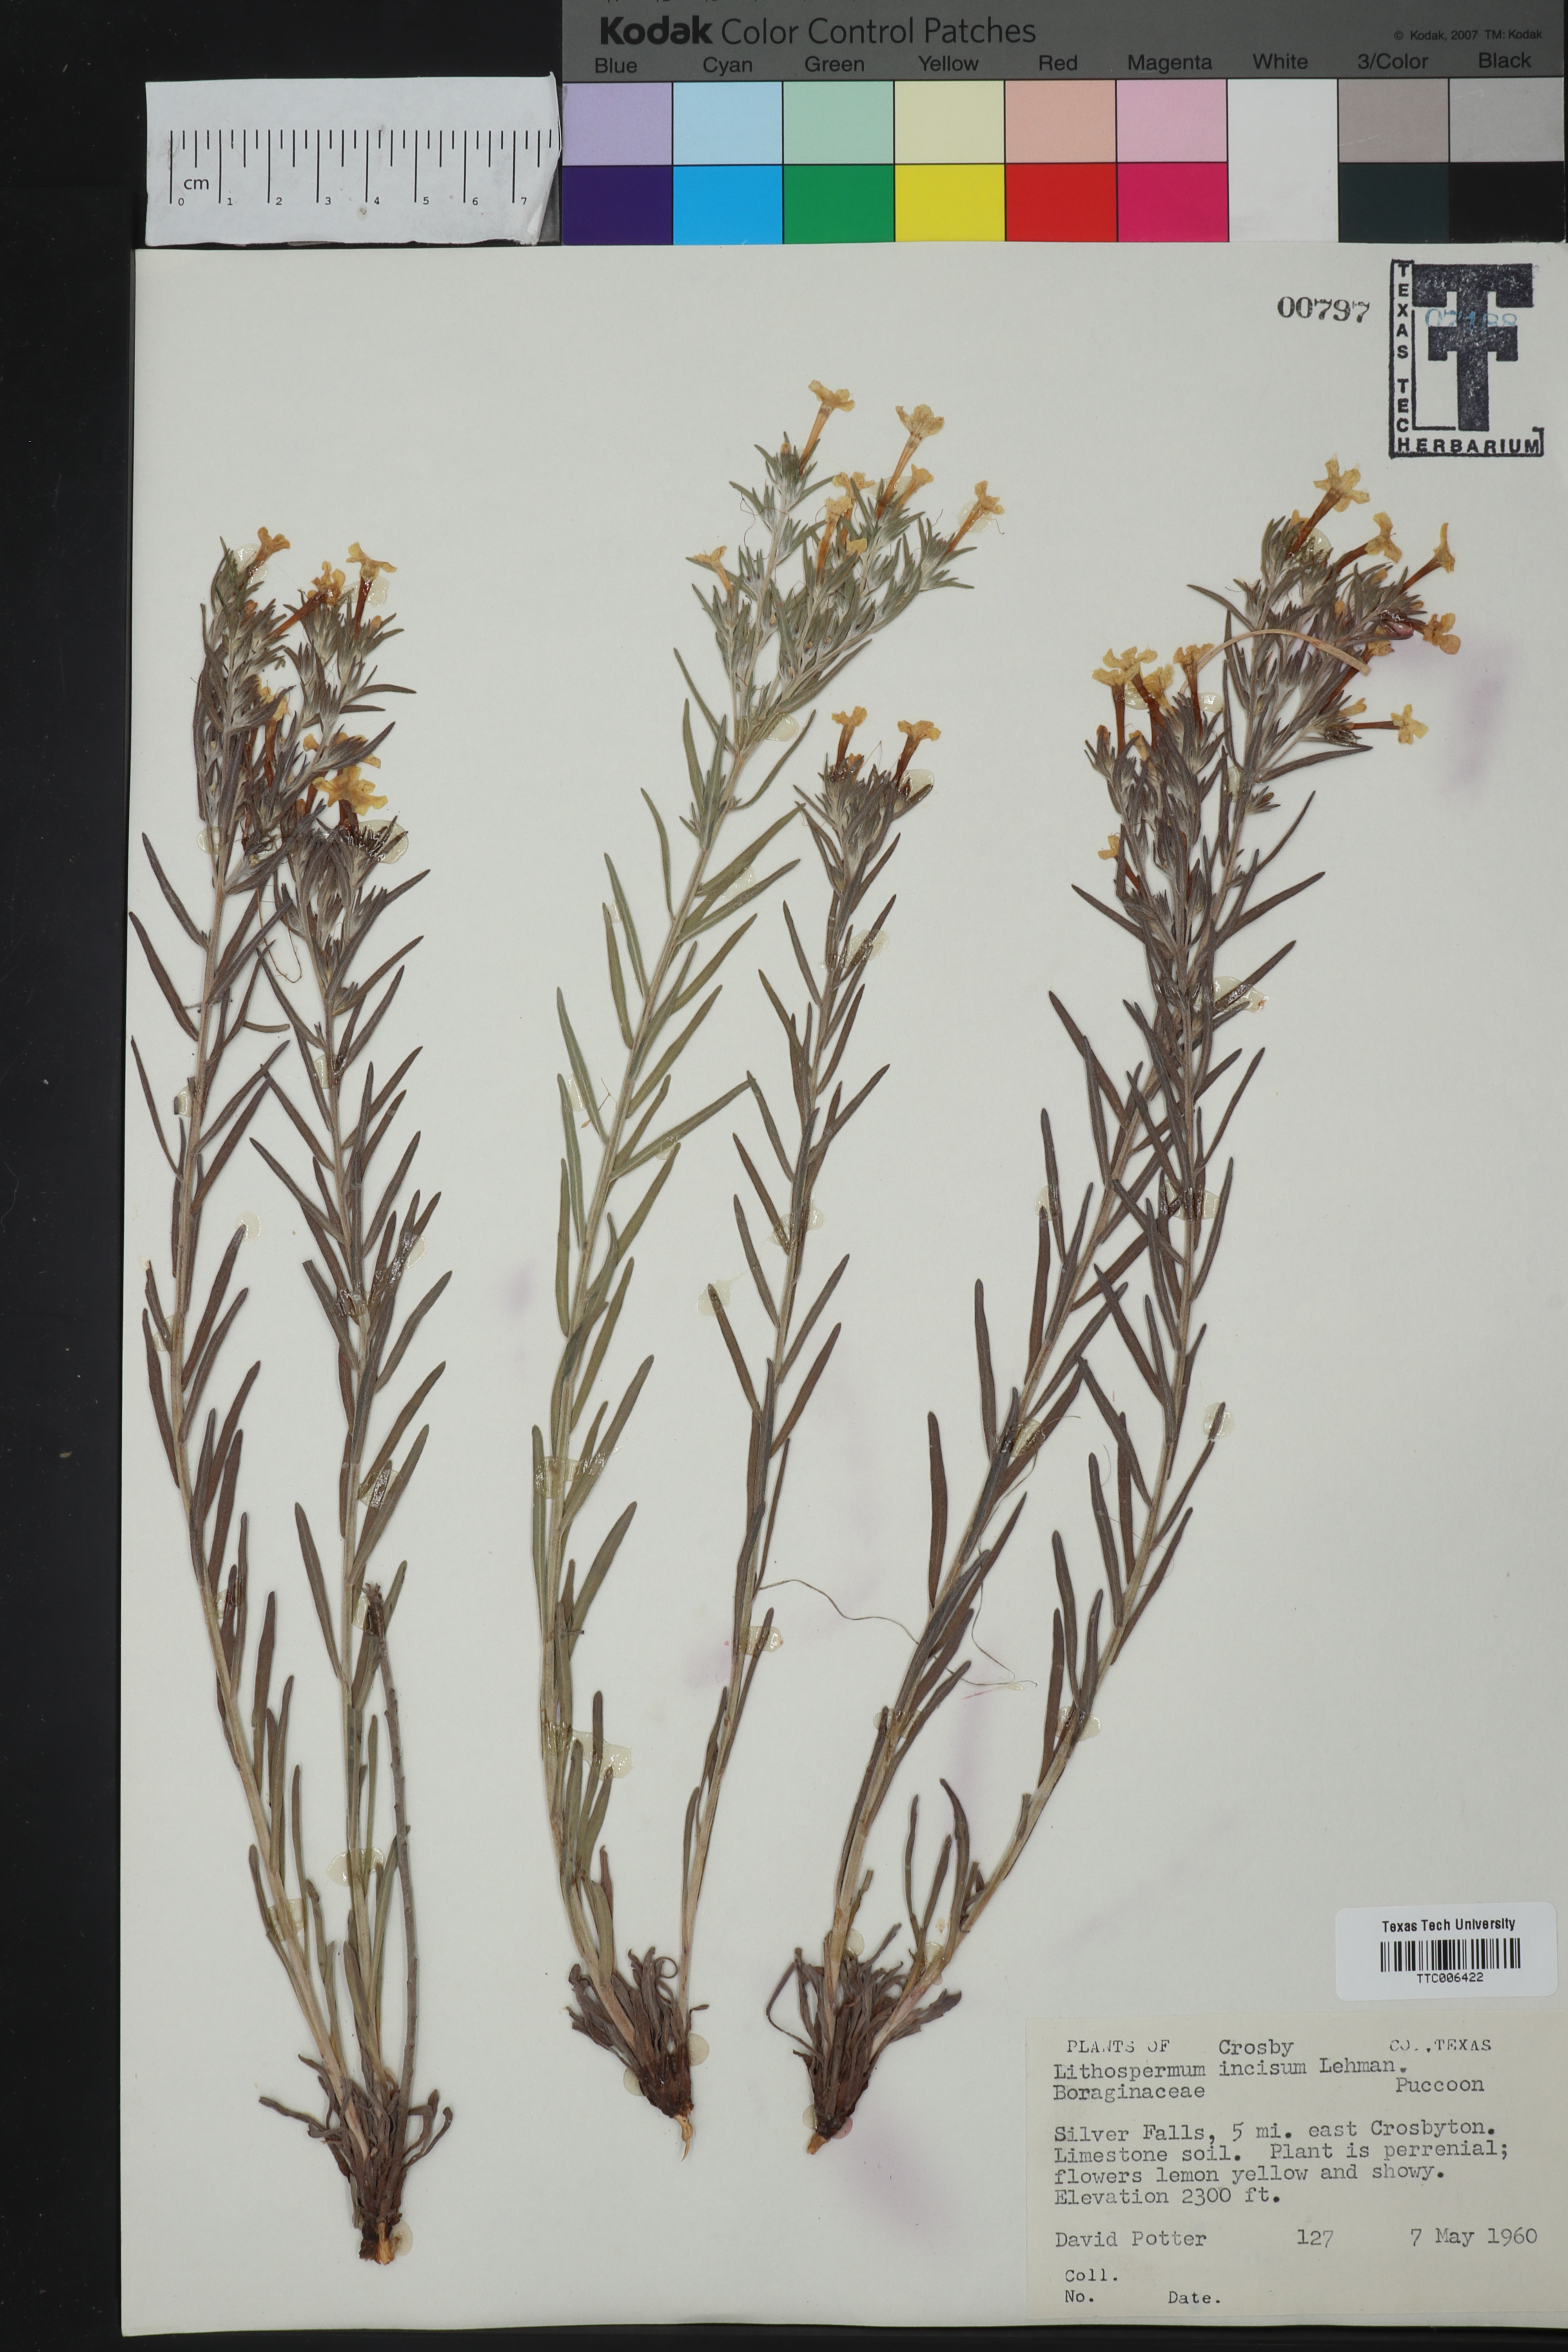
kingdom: Plantae
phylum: Tracheophyta
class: Magnoliopsida
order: Boraginales
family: Boraginaceae
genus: Lithospermum
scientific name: Lithospermum incisum
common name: Fringed gromwell
